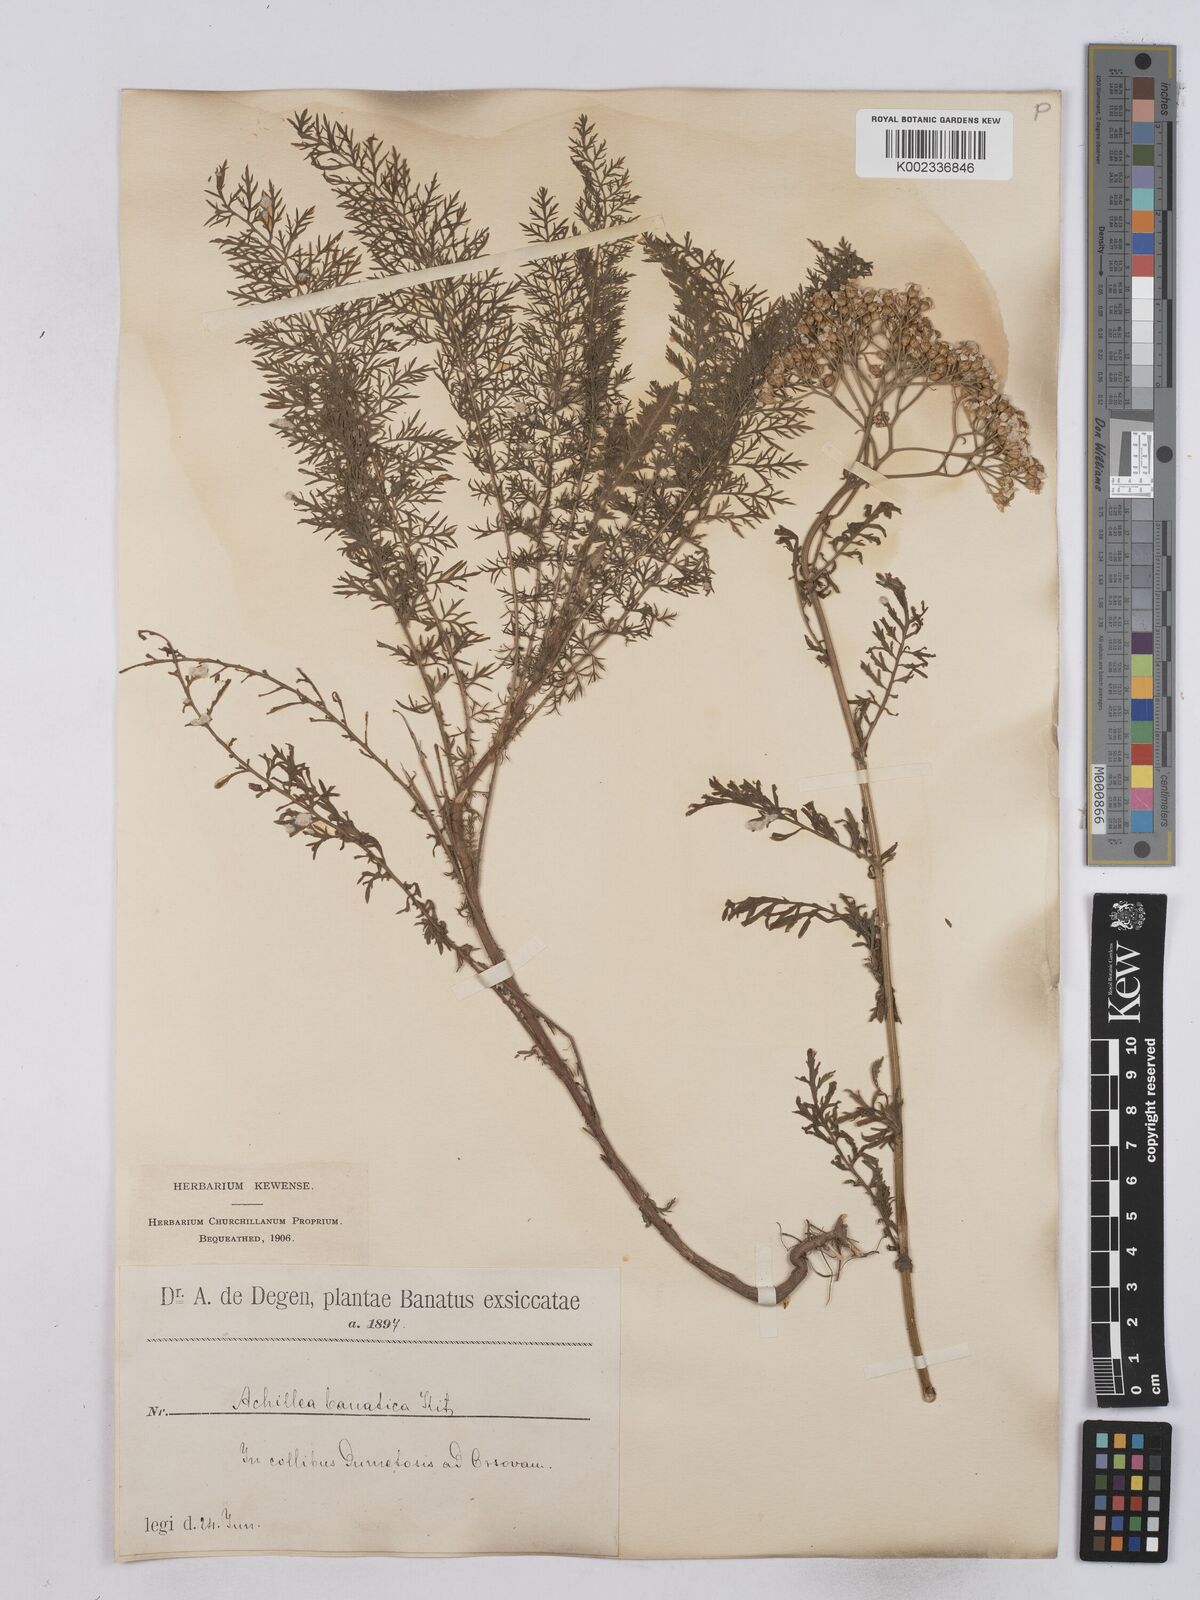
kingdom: Plantae
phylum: Tracheophyta
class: Magnoliopsida
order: Asterales
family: Asteraceae
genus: Achillea
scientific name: Achillea crithmifolia
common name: Yarrow
